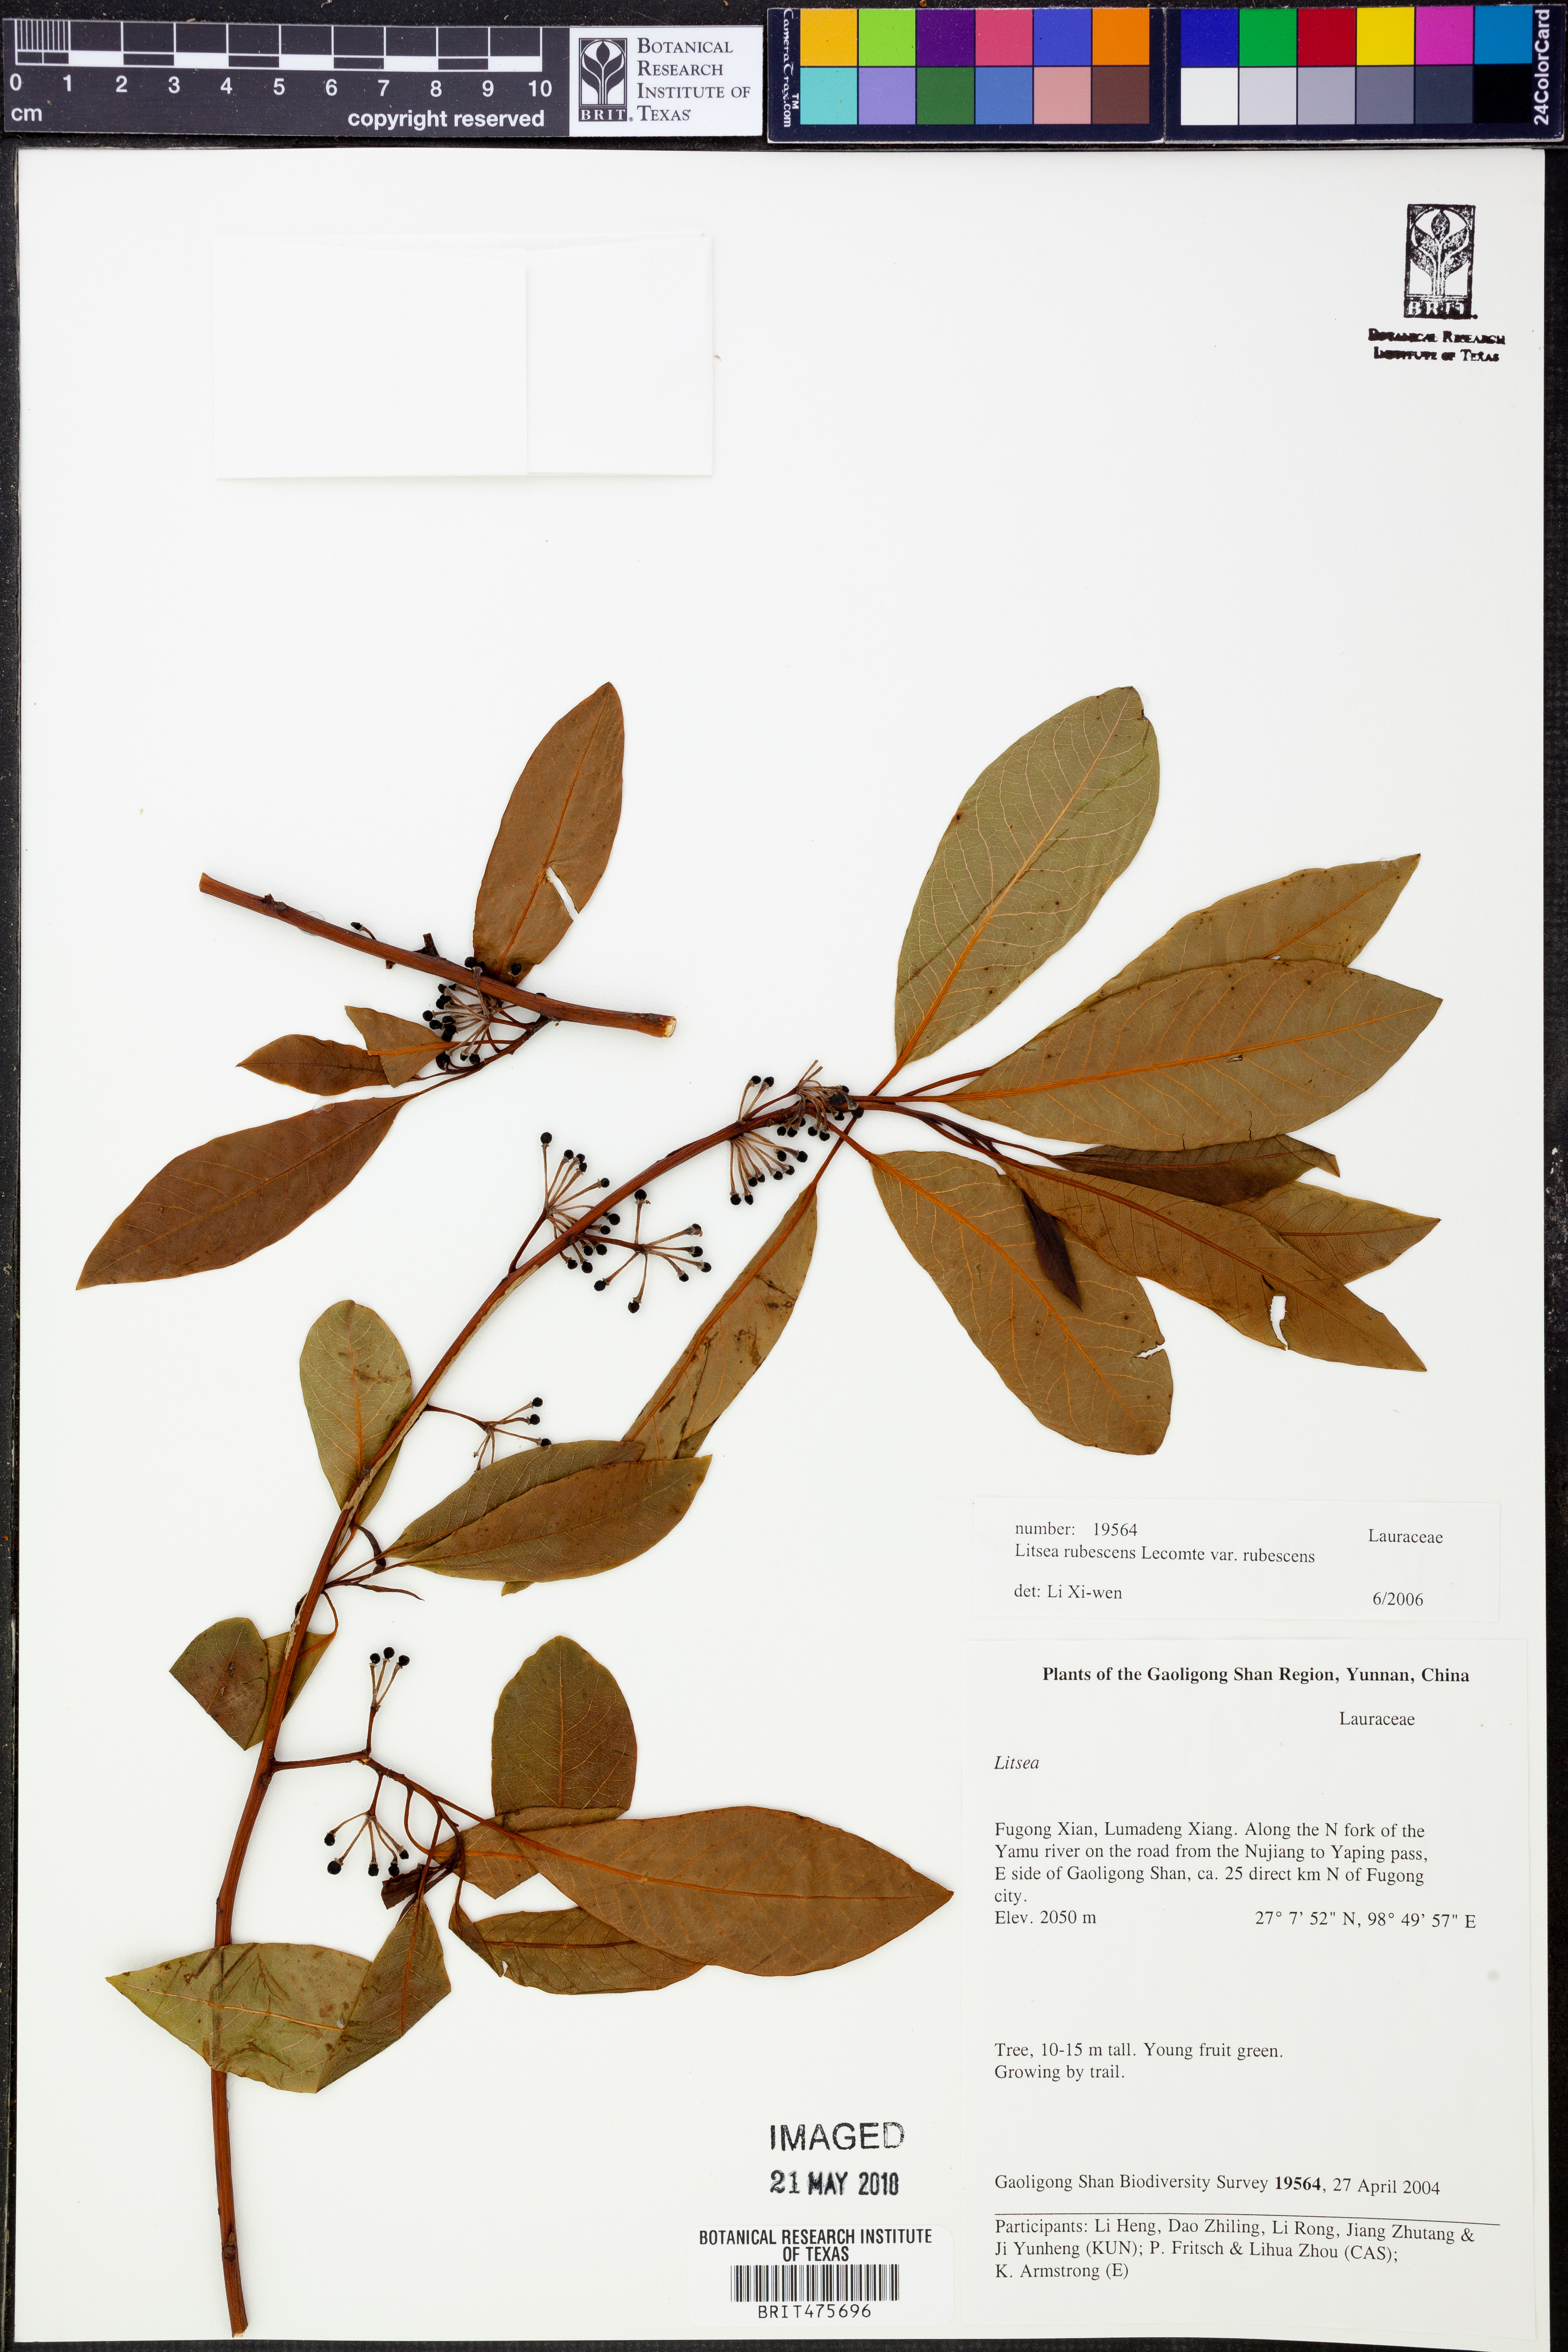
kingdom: Plantae
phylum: Tracheophyta
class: Magnoliopsida
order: Laurales
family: Lauraceae
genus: Litsea
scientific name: Litsea rubescens
